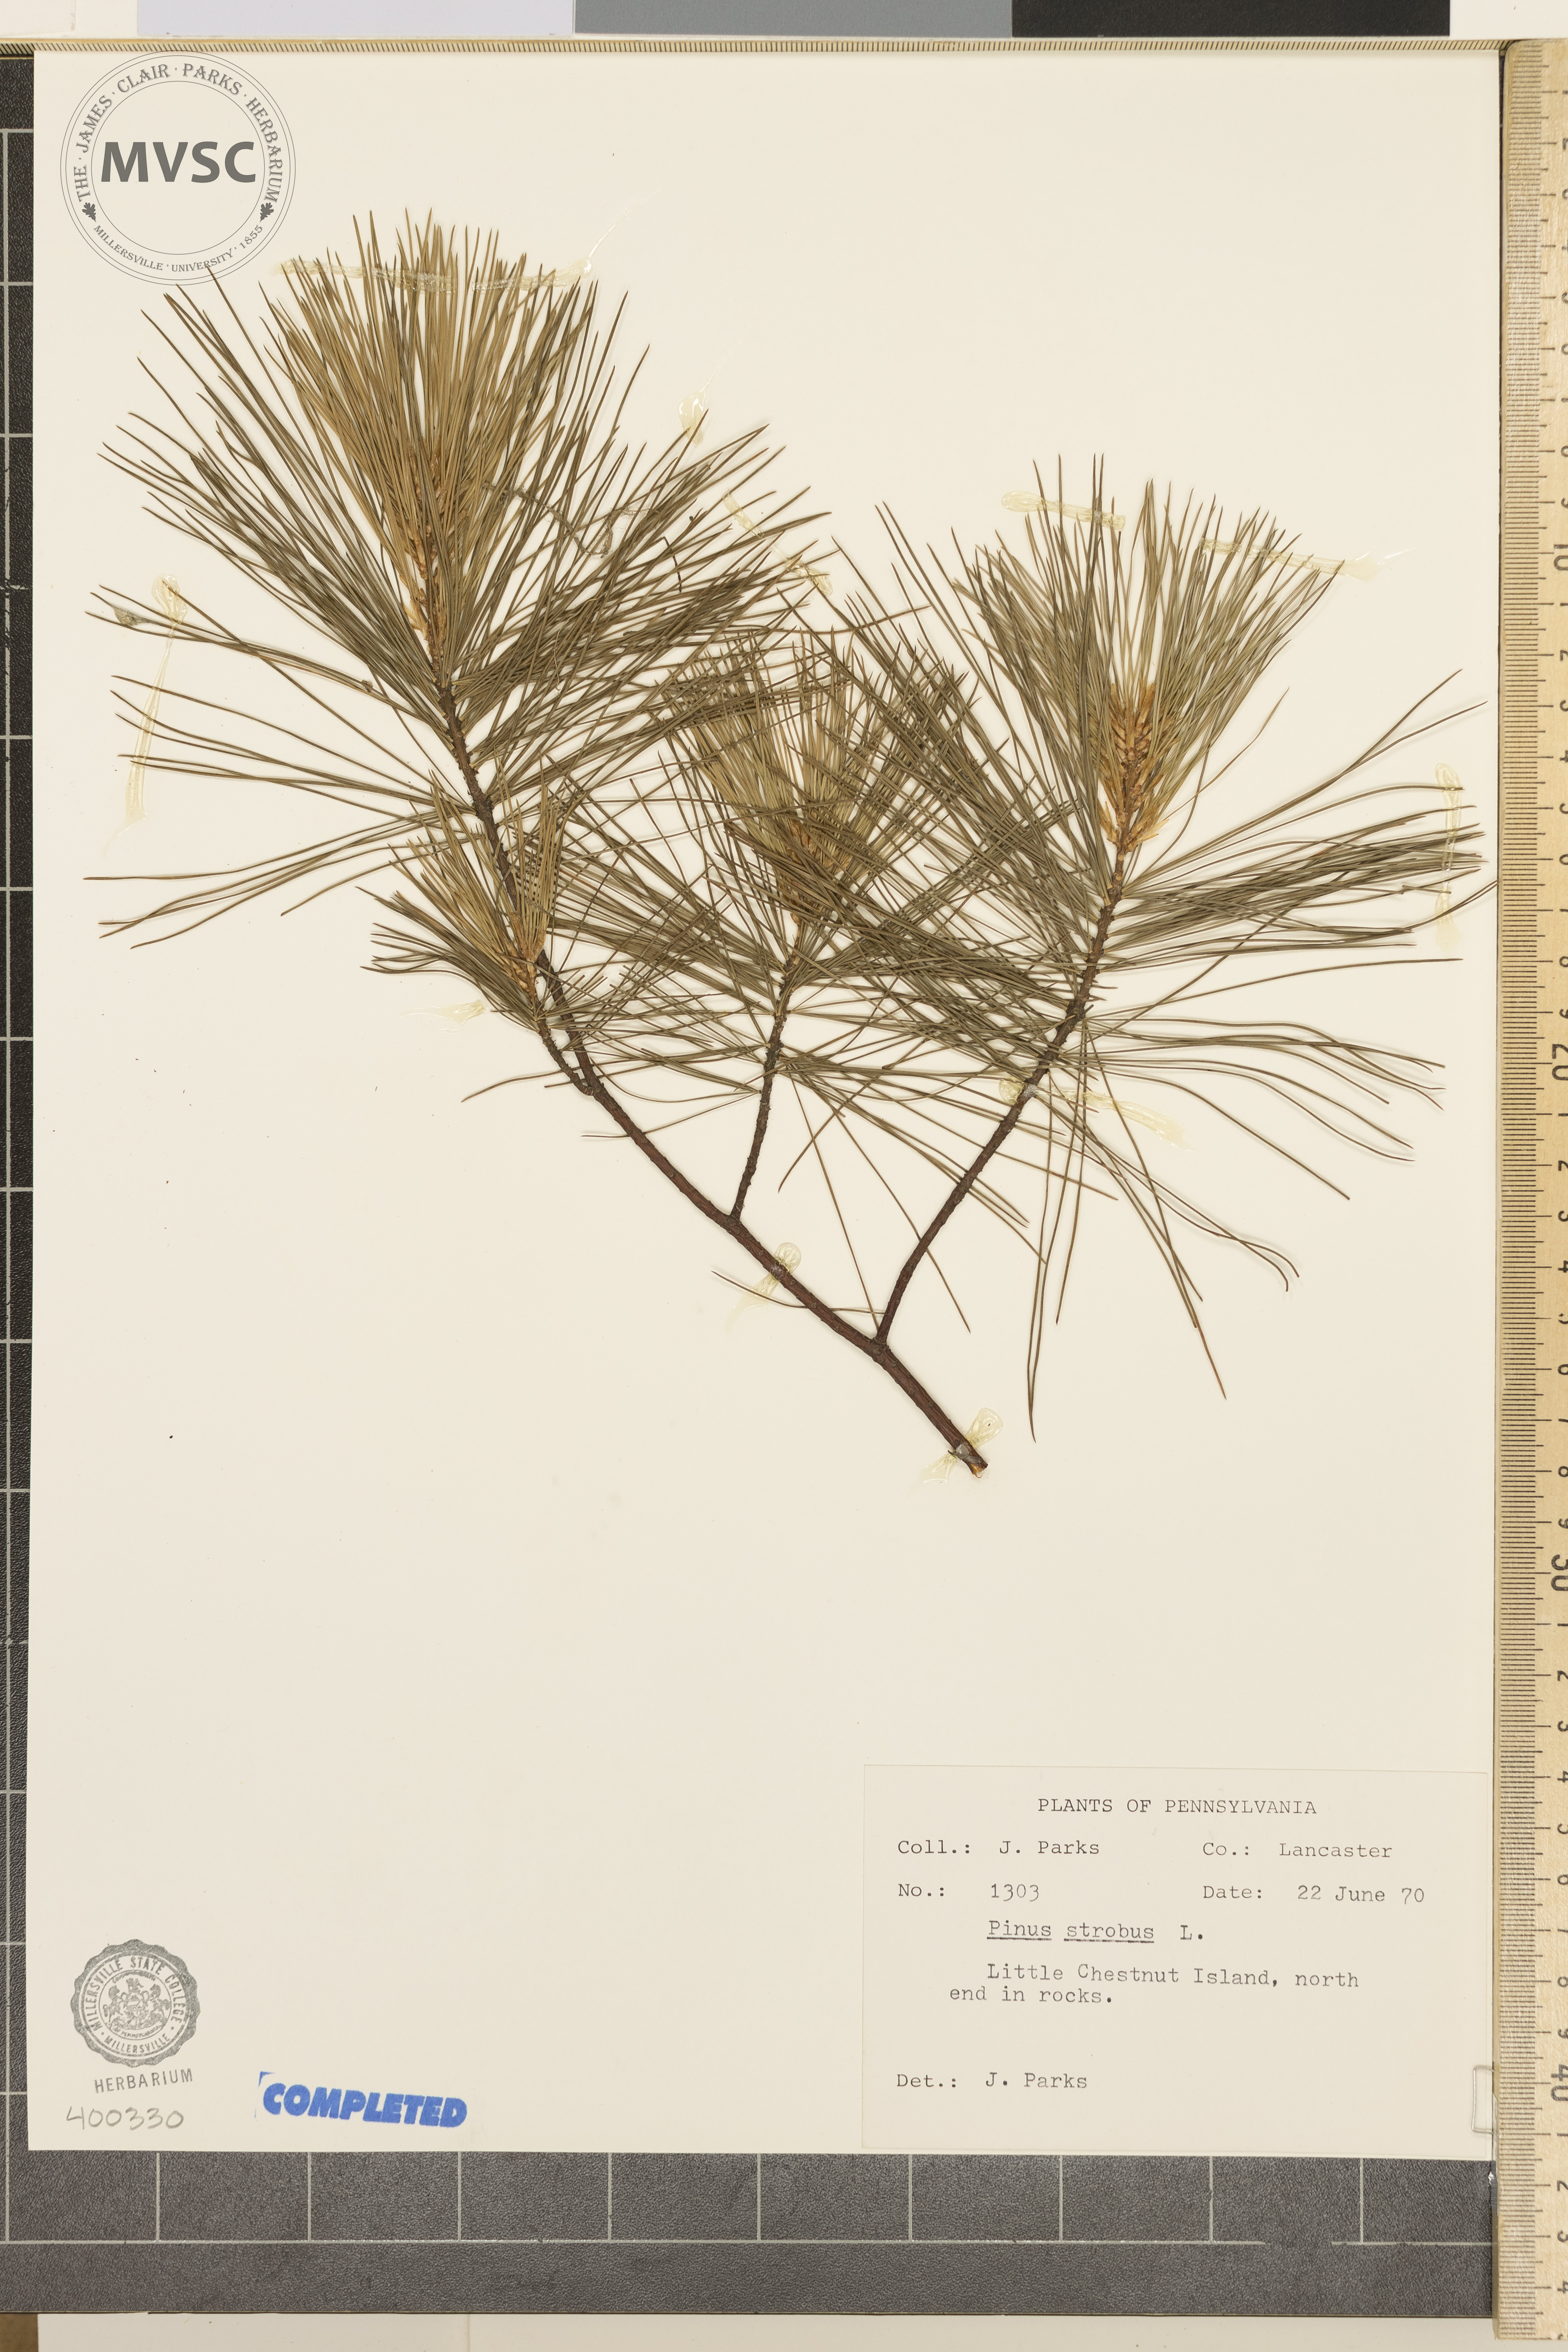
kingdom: Plantae
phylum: Tracheophyta
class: Pinopsida
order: Pinales
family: Pinaceae
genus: Pinus
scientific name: Pinus strobus
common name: Eastern white pine
